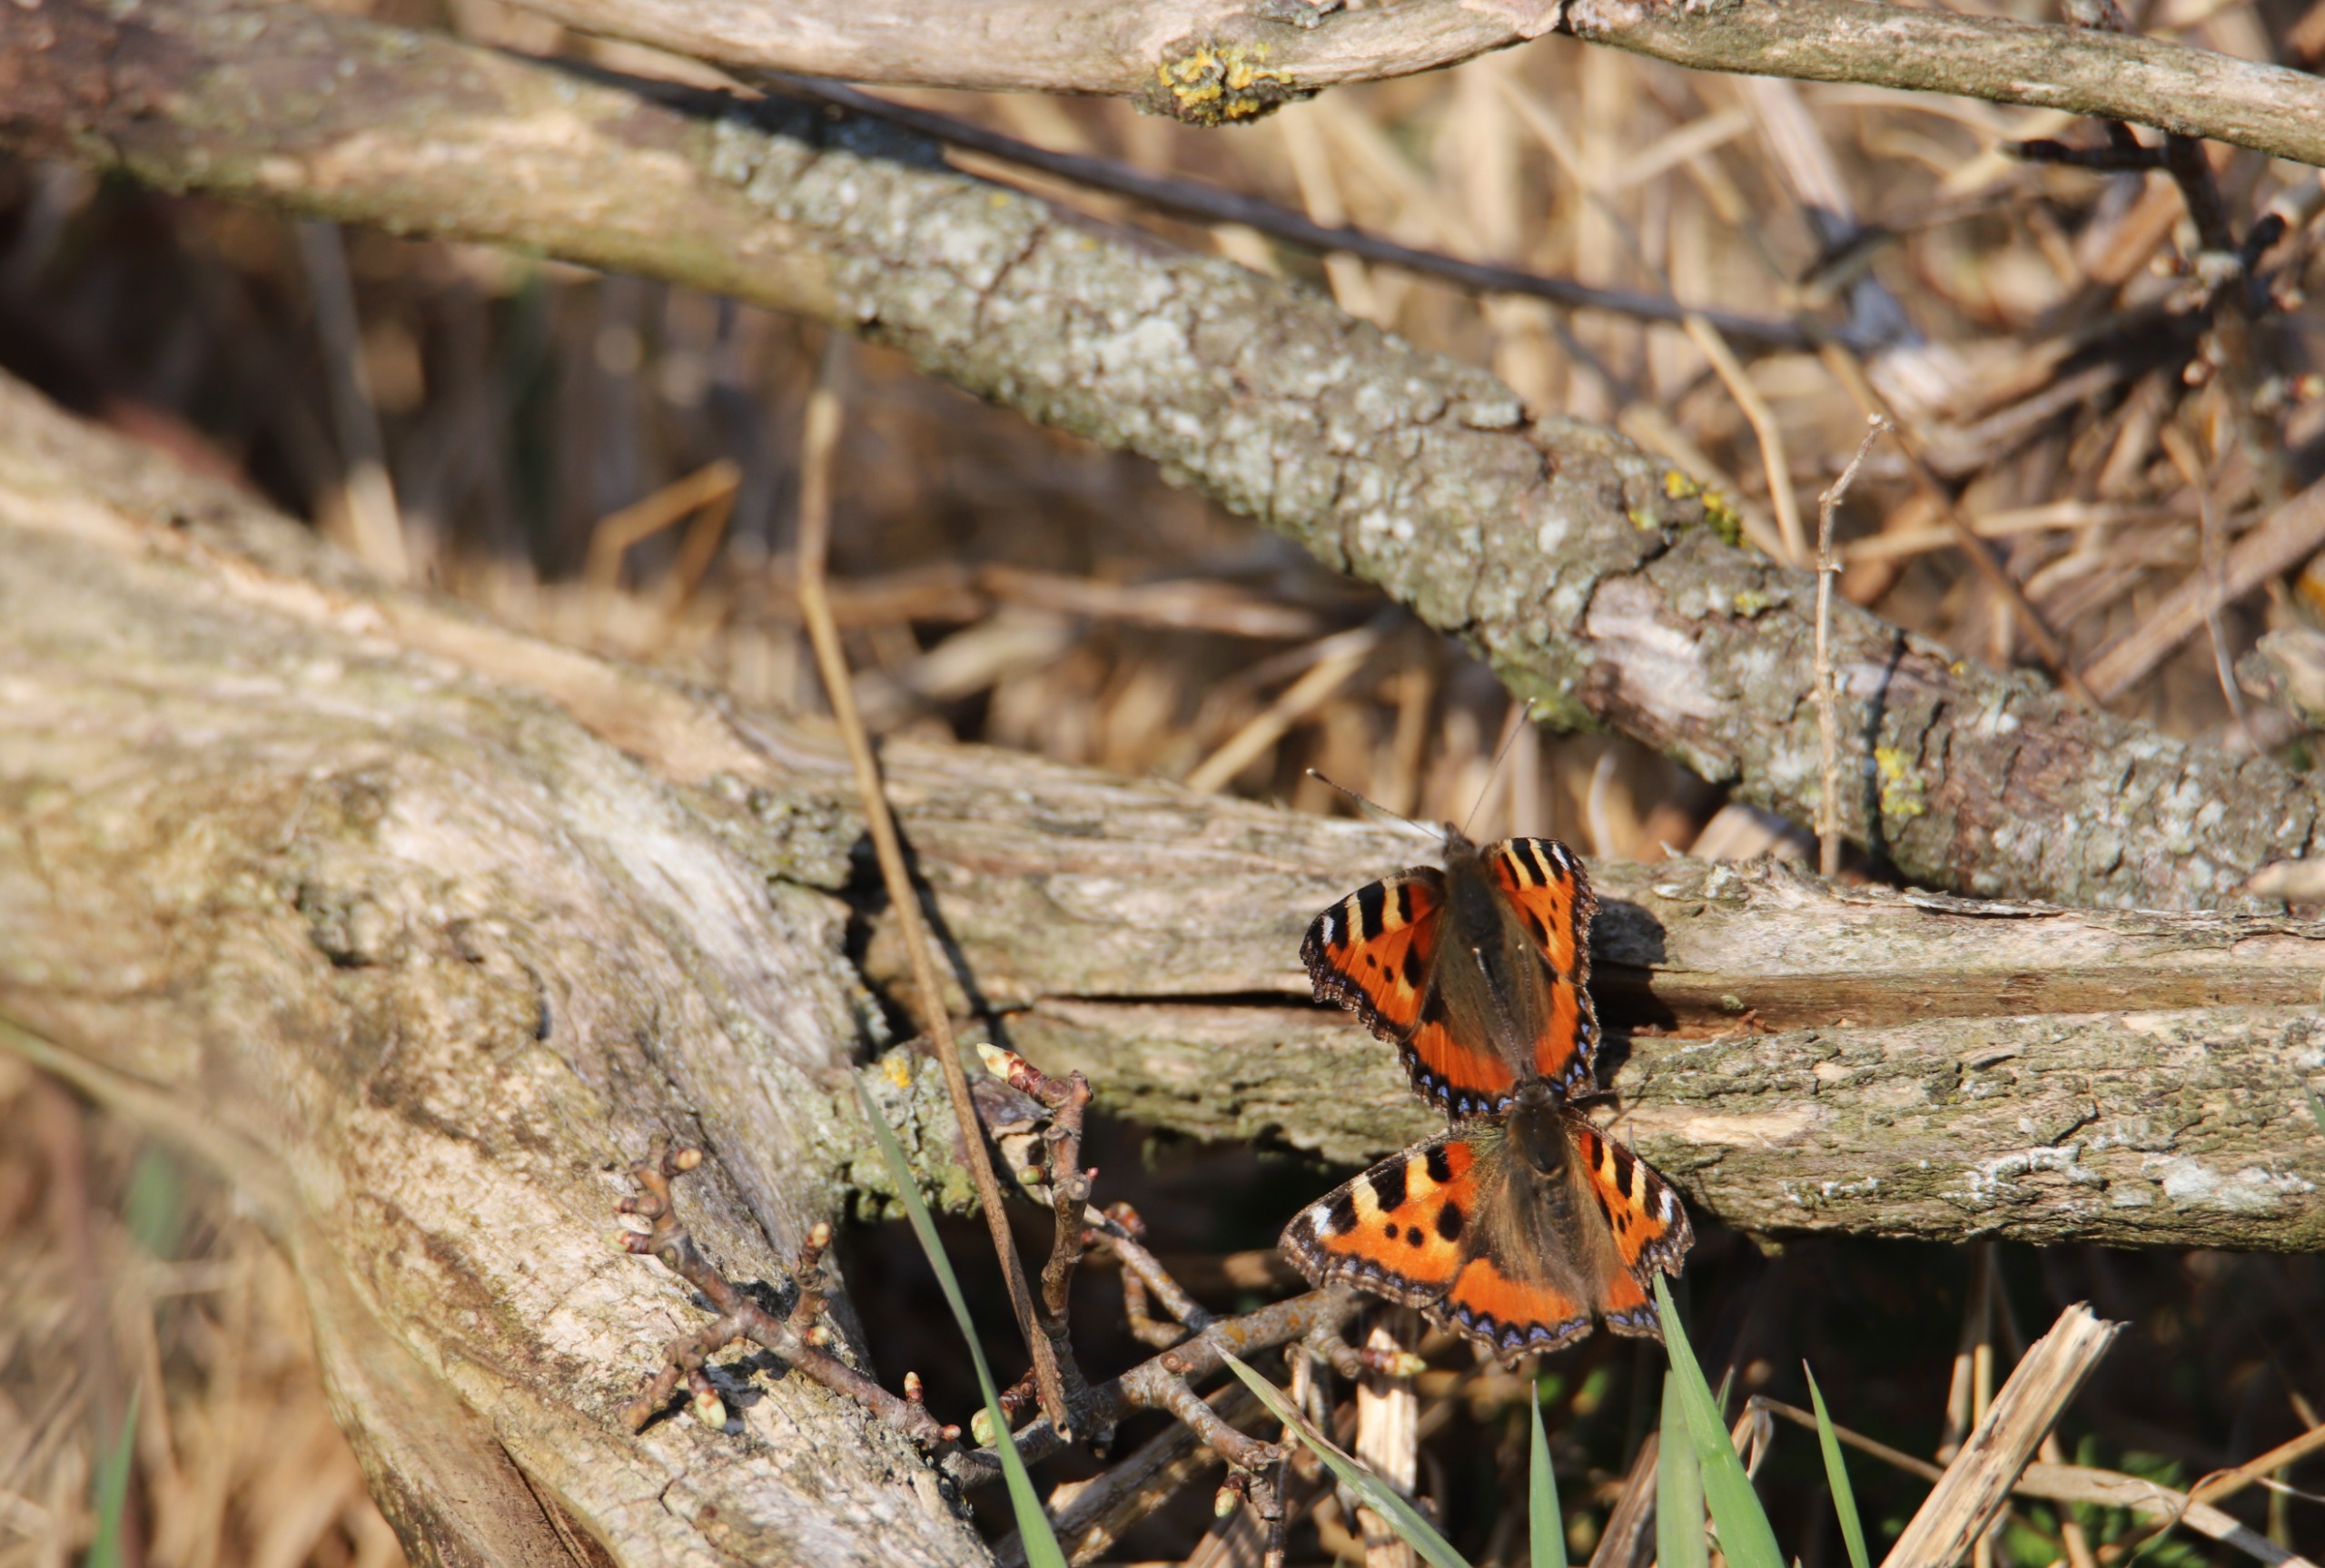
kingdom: Animalia
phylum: Arthropoda
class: Insecta
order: Lepidoptera
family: Nymphalidae
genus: Aglais
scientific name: Aglais urticae
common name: Nældens takvinge
